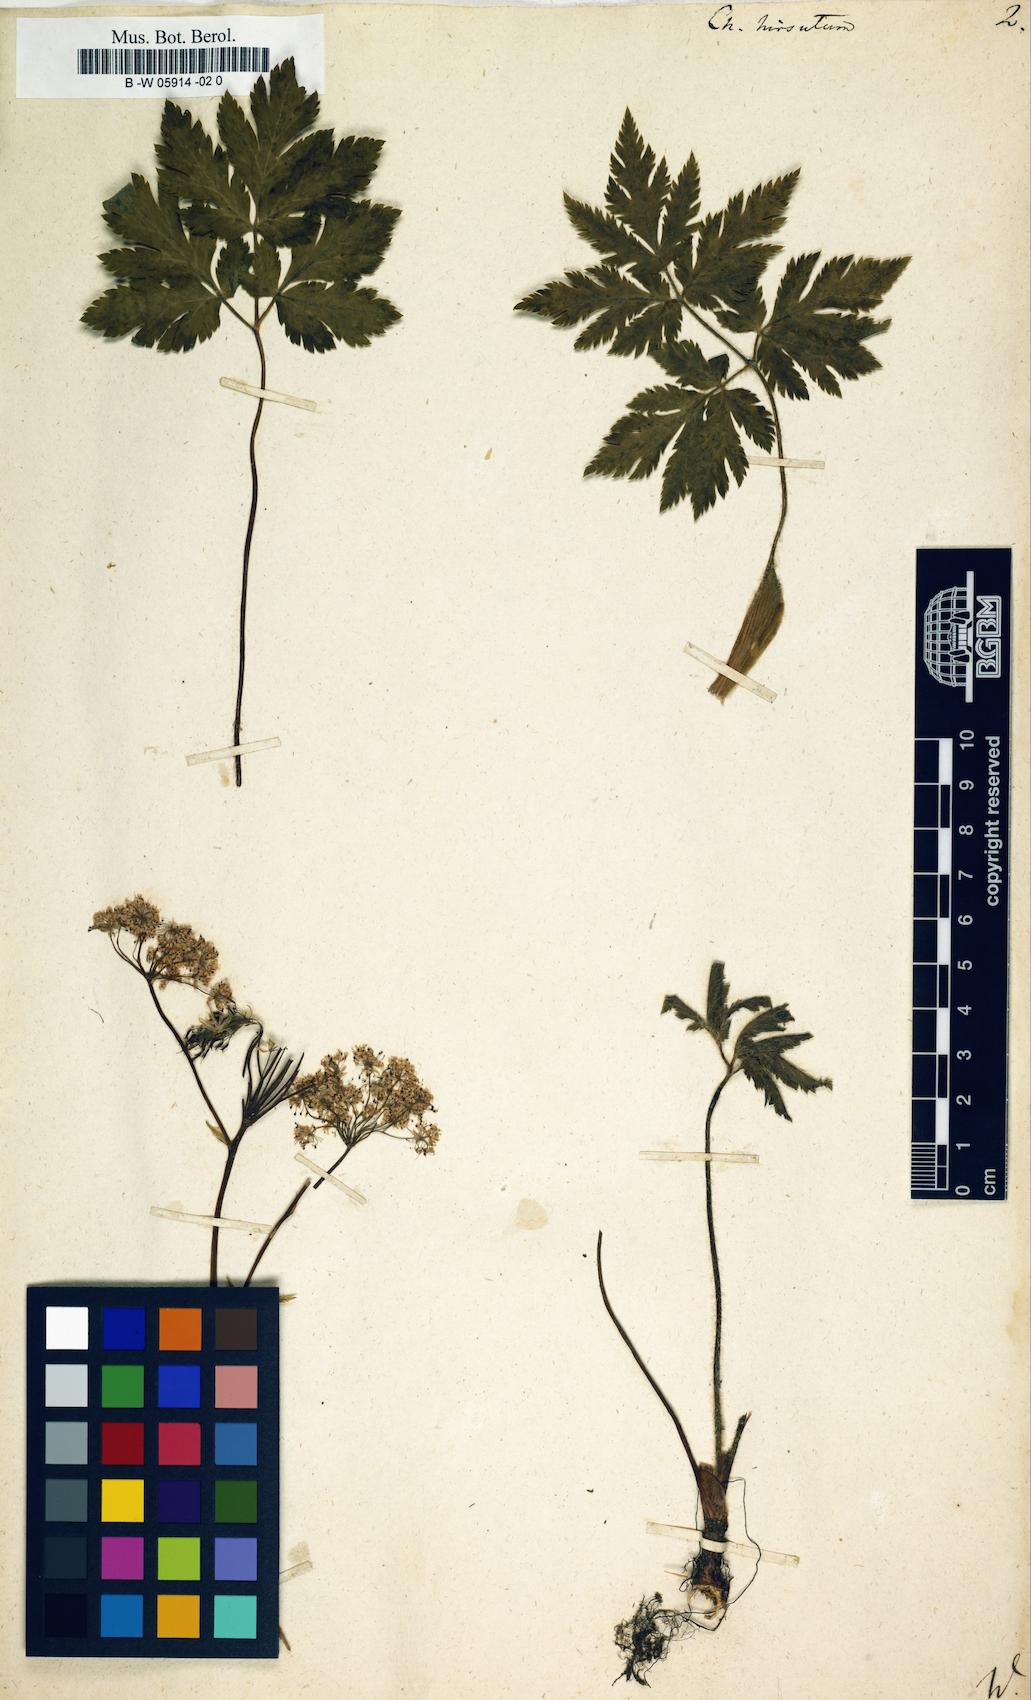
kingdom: Plantae
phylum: Tracheophyta
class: Magnoliopsida
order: Apiales
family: Apiaceae
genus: Chaerophyllum
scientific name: Chaerophyllum hirsutum
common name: Hairy chervil
